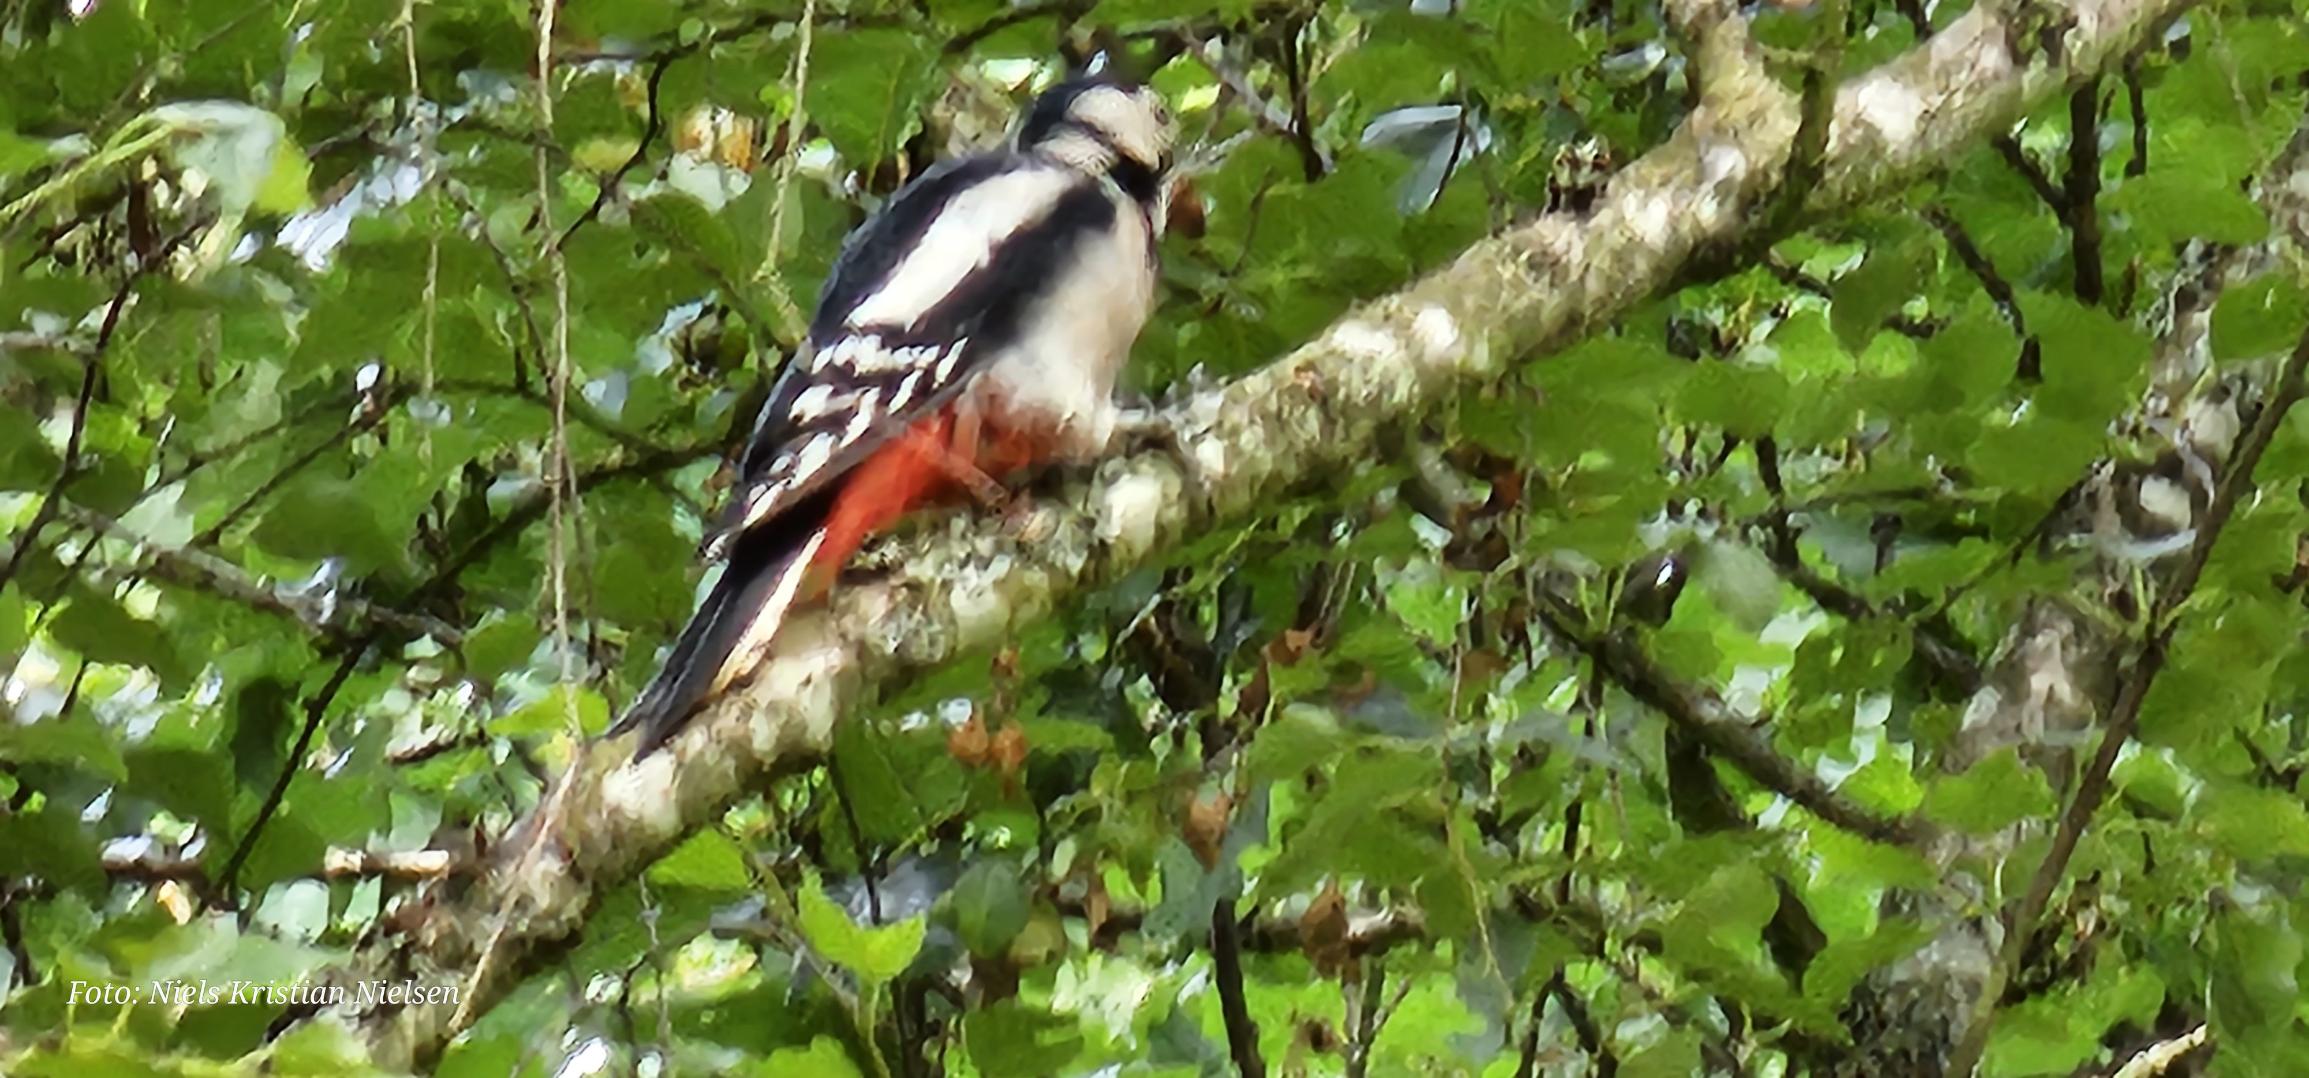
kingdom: Animalia
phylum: Chordata
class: Aves
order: Piciformes
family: Picidae
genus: Dendrocopos
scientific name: Dendrocopos major
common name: Stor flagspætte
